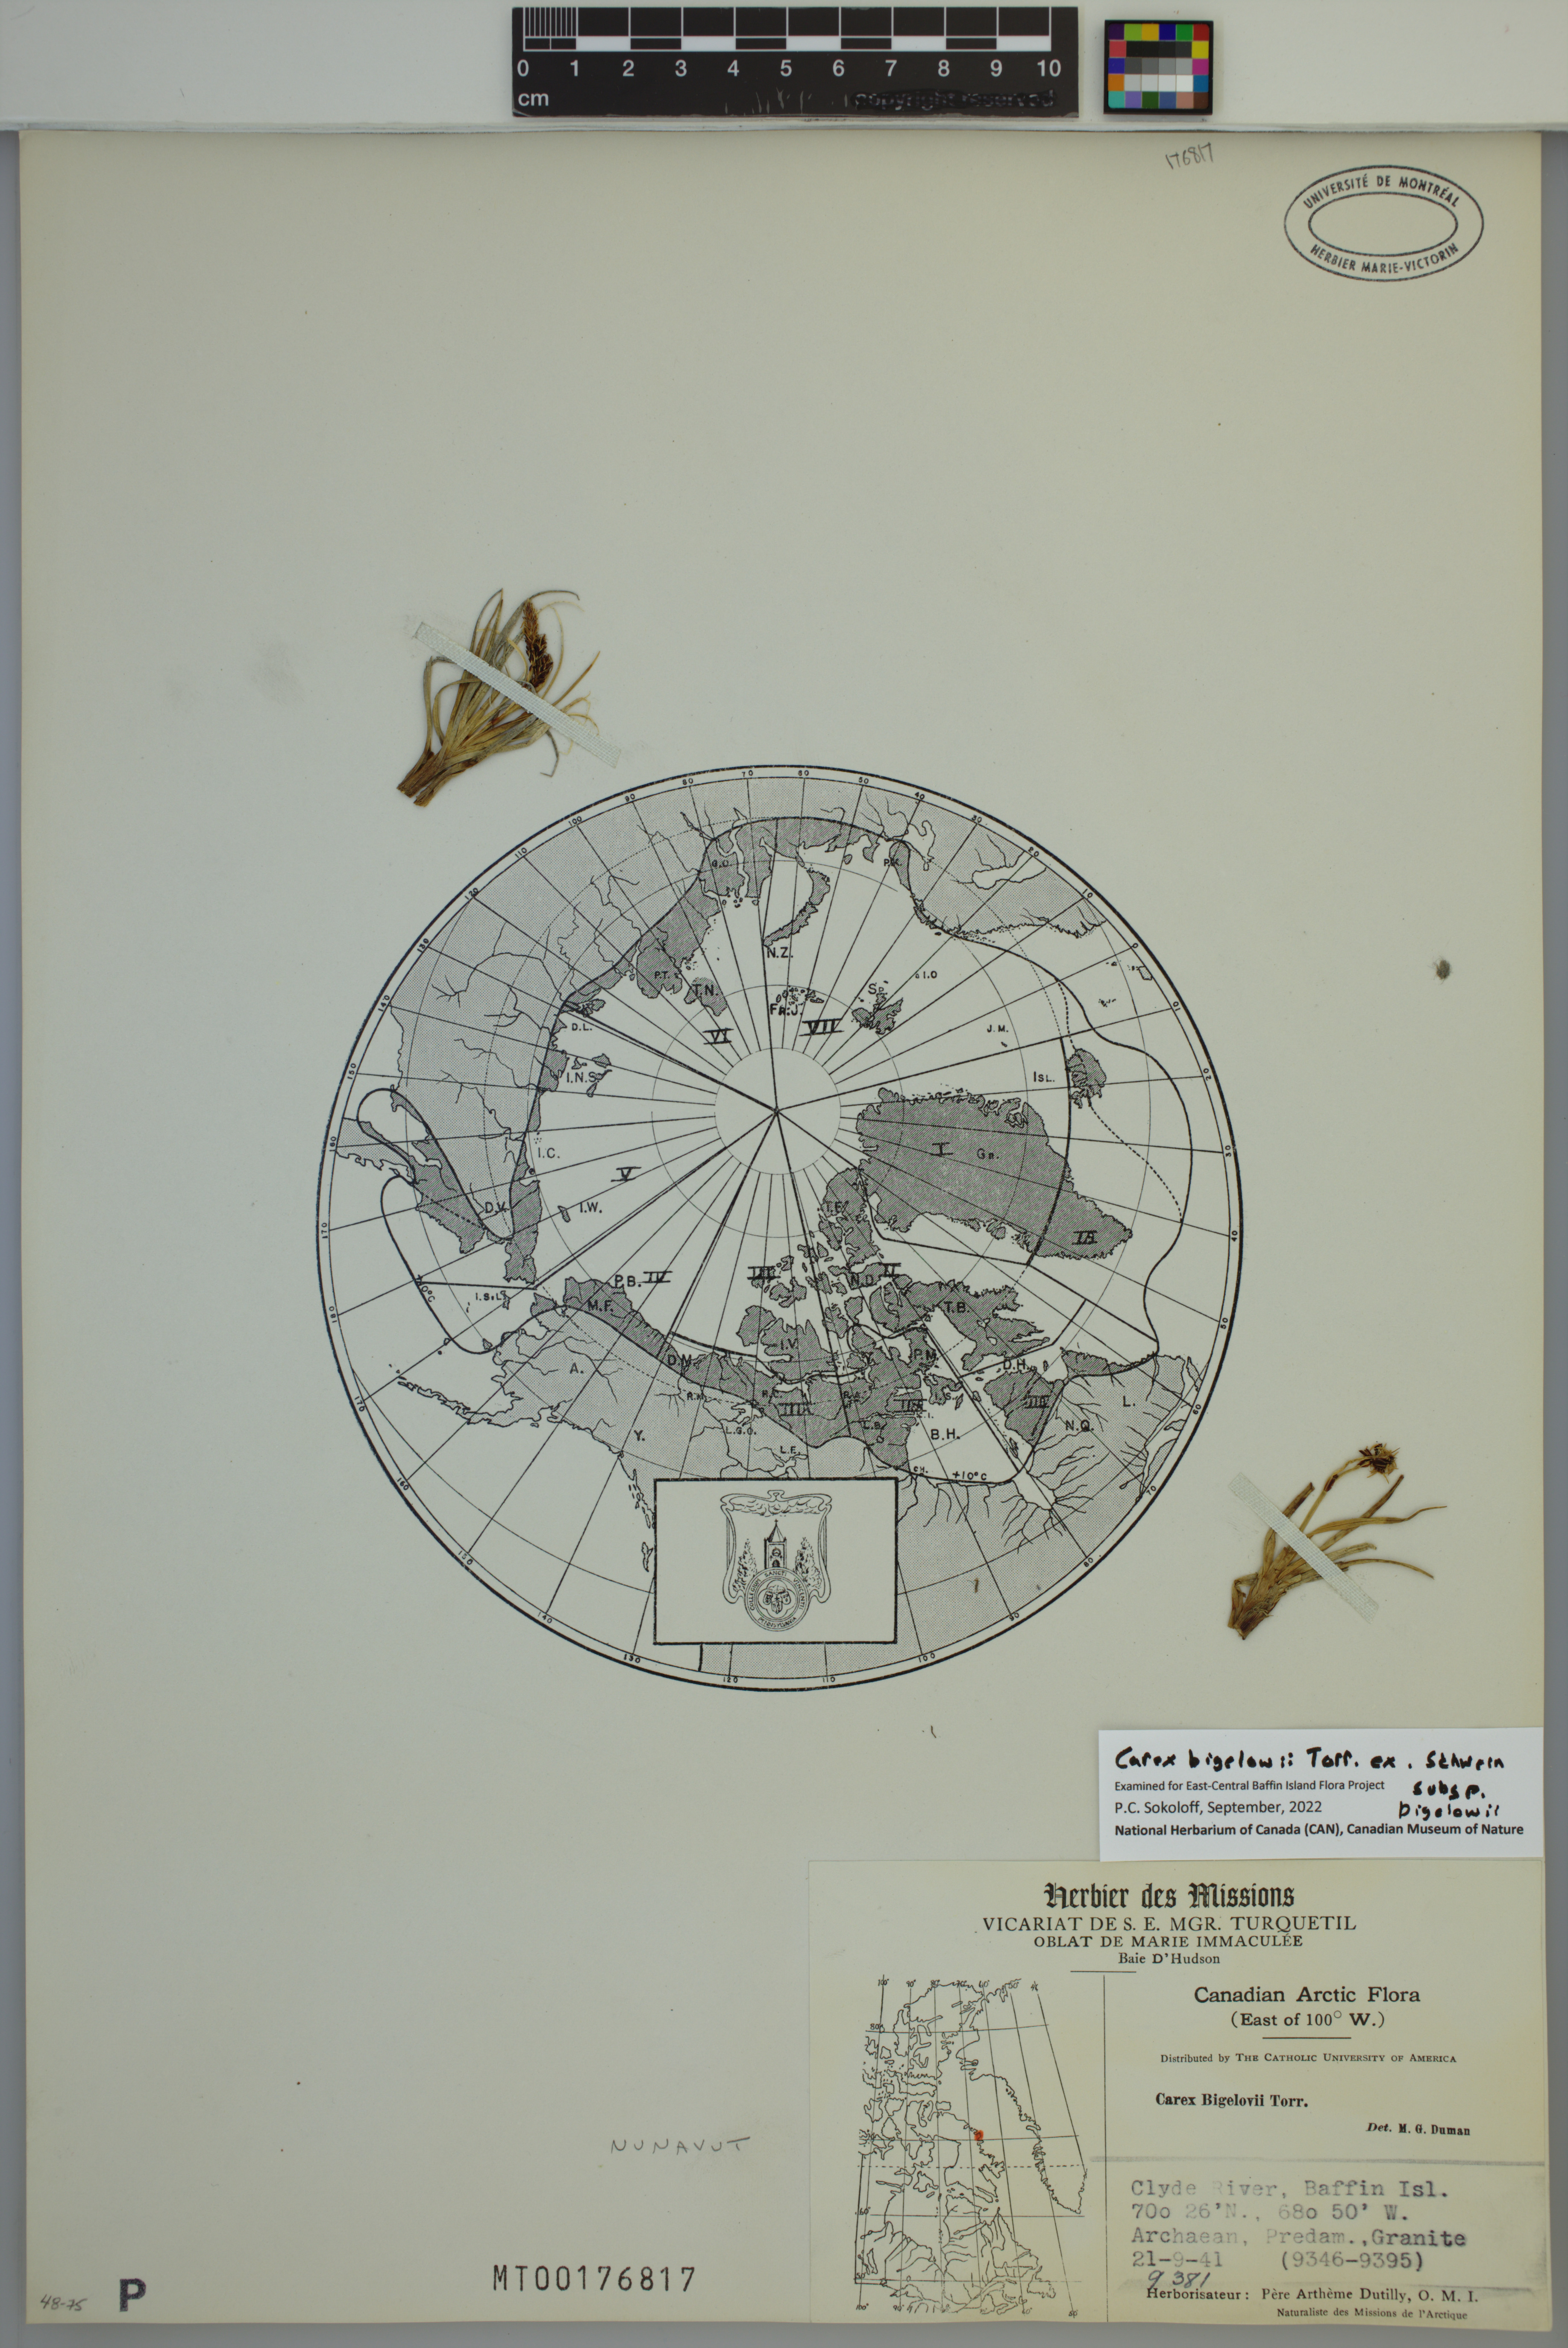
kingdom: Plantae
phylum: Tracheophyta
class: Liliopsida
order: Poales
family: Cyperaceae
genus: Carex
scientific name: Carex bigelowii
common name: Stiff sedge
